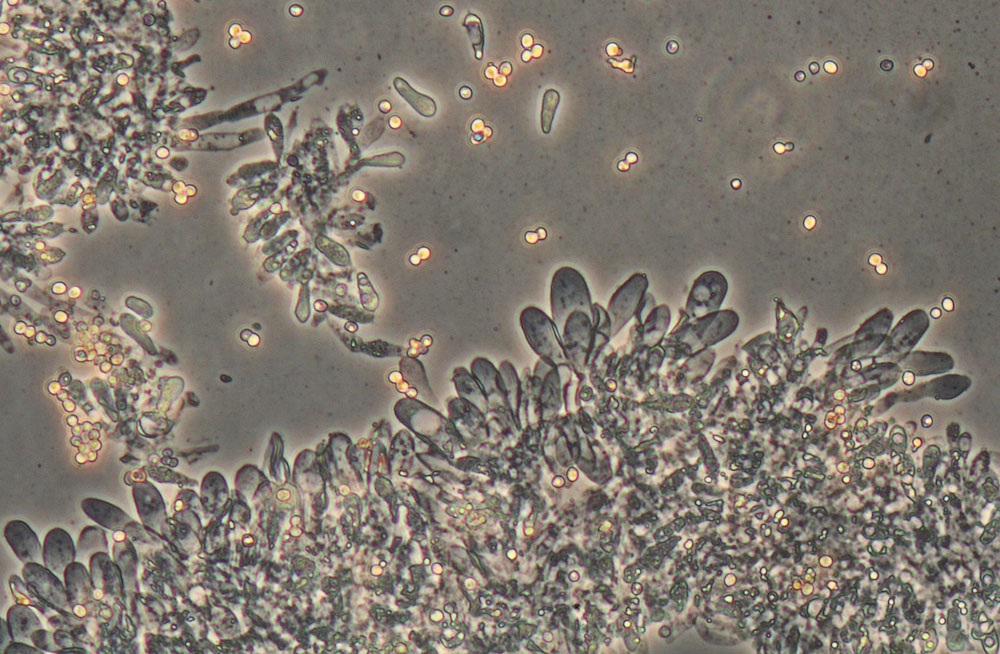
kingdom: Fungi
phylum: Basidiomycota
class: Agaricomycetes
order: Agaricales
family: Pluteaceae
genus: Pluteus
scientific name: Pluteus hispidulus
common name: Fleecy shield
